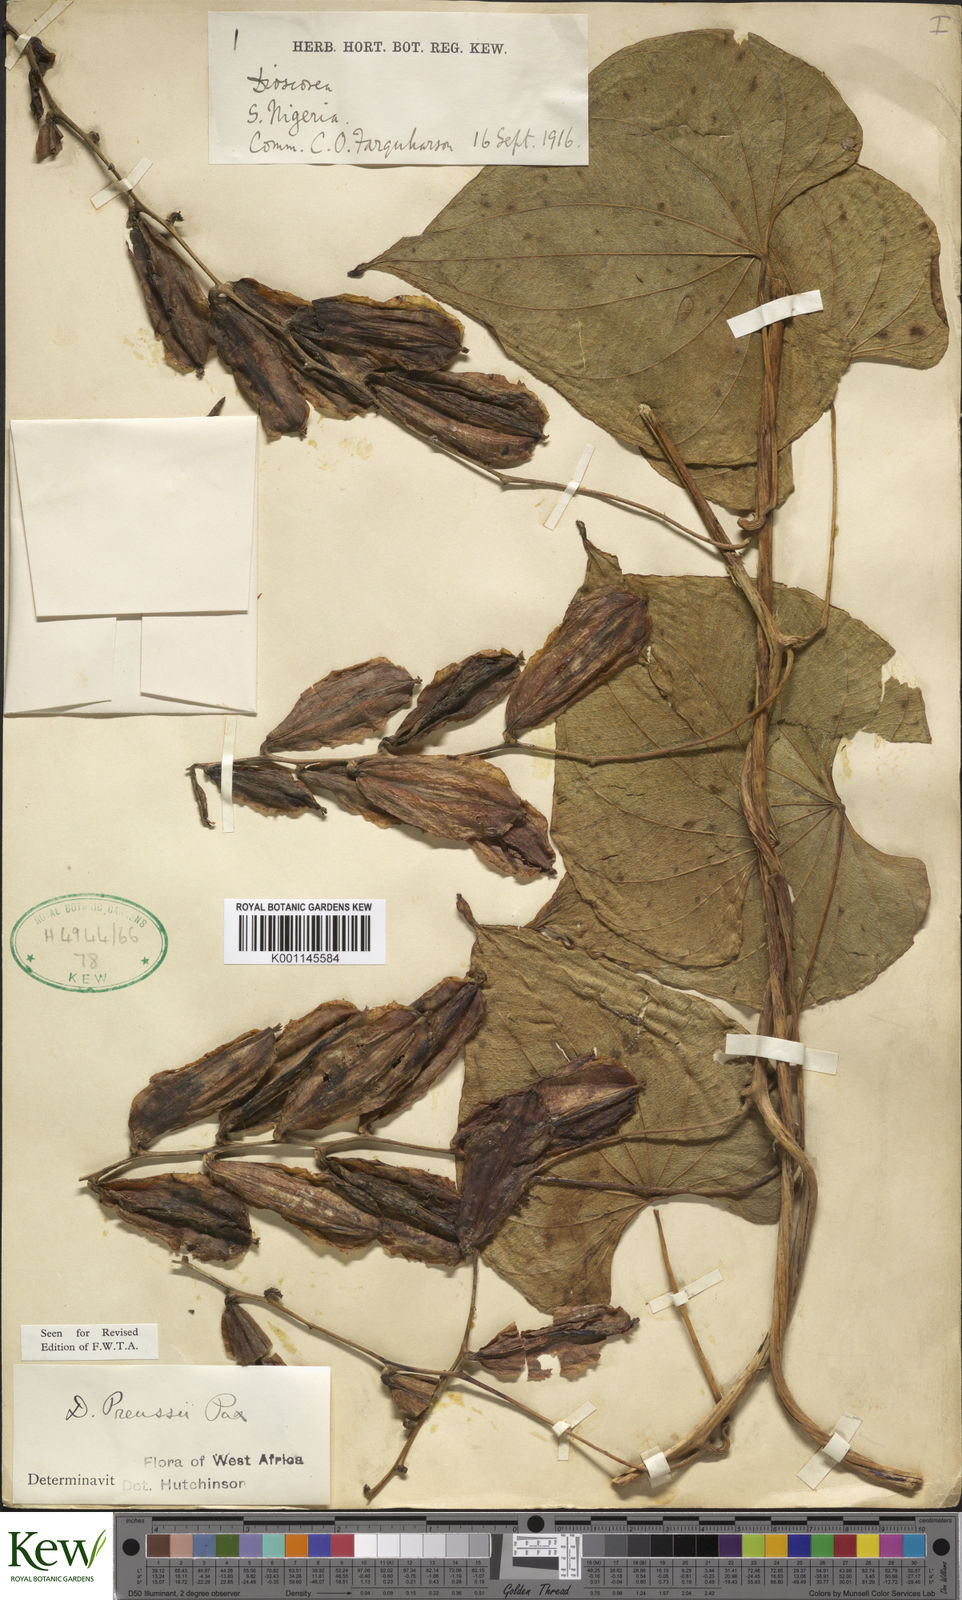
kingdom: Plantae
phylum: Tracheophyta
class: Liliopsida
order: Dioscoreales
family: Dioscoreaceae
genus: Dioscorea
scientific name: Dioscorea preussii
